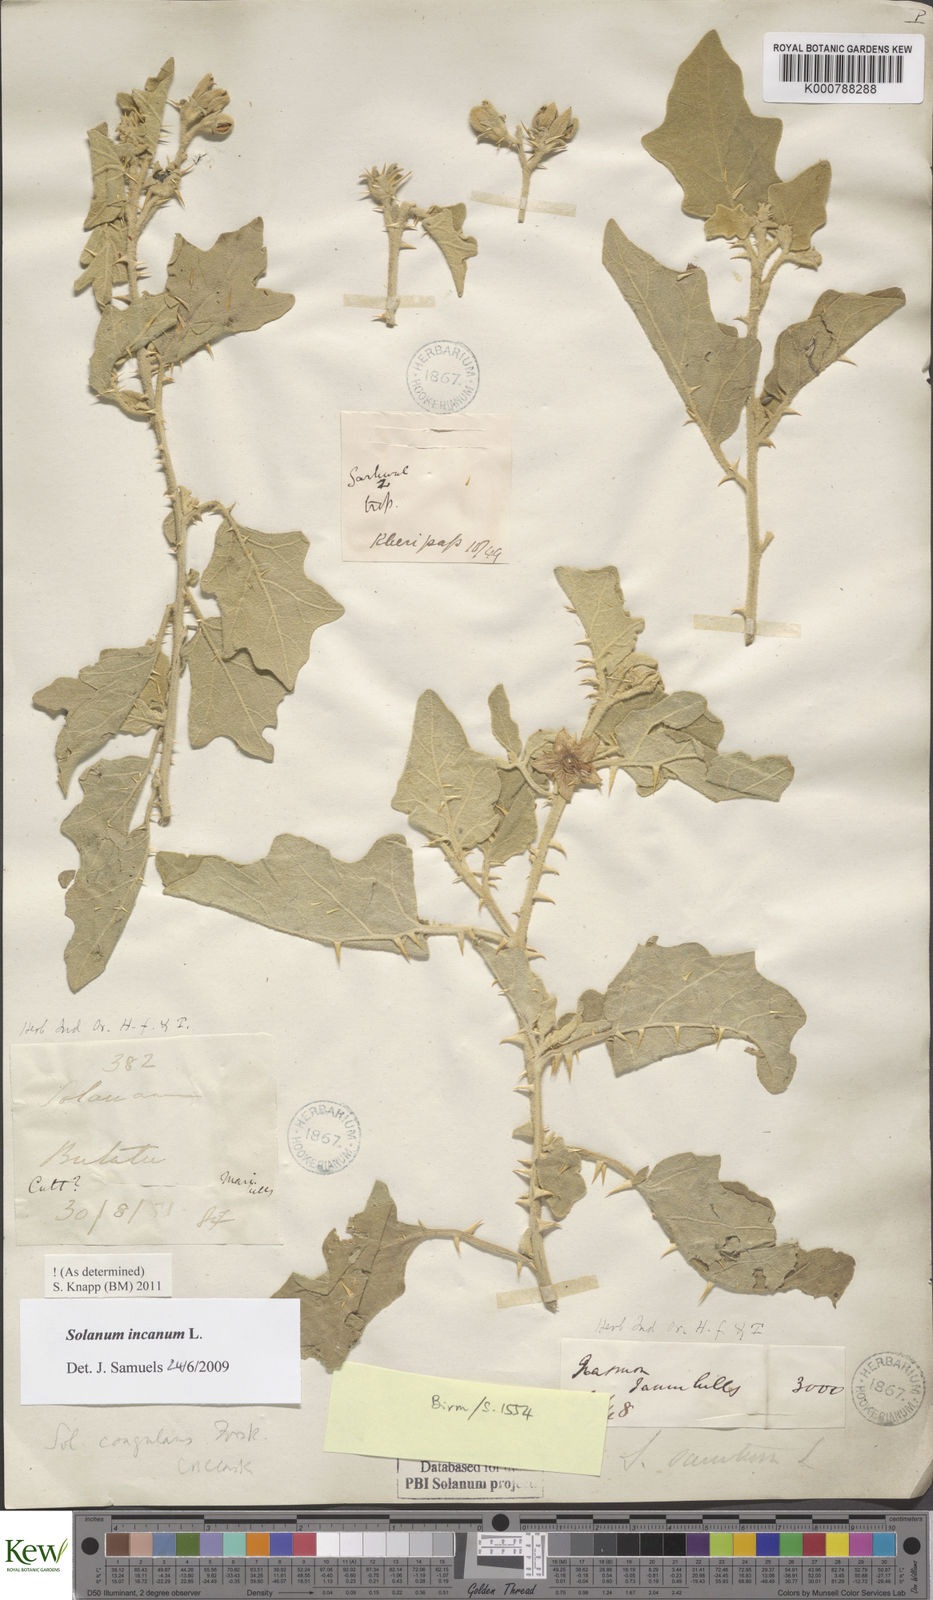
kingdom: Plantae
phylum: Tracheophyta
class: Magnoliopsida
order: Solanales
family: Solanaceae
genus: Solanum
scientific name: Solanum incanum
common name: Bitter apple
